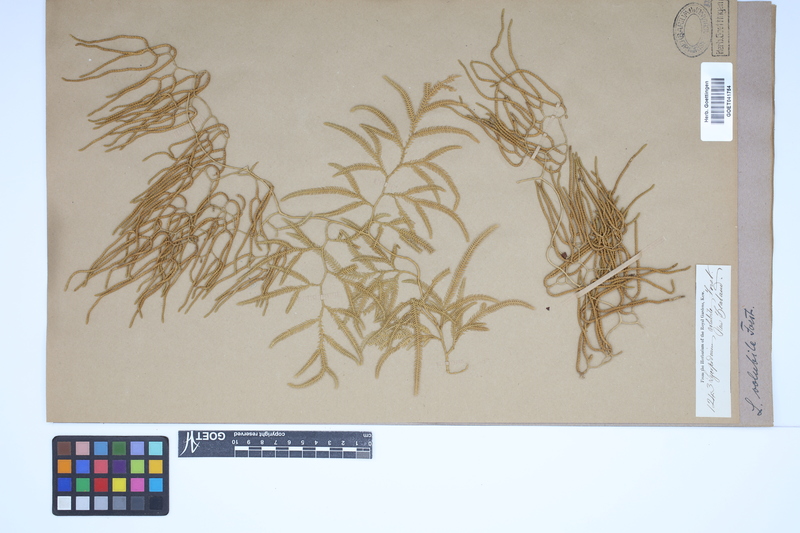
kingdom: Plantae
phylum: Tracheophyta
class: Lycopodiopsida
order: Lycopodiales
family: Lycopodiaceae
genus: Pseudodiphasium
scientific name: Pseudodiphasium volubile
